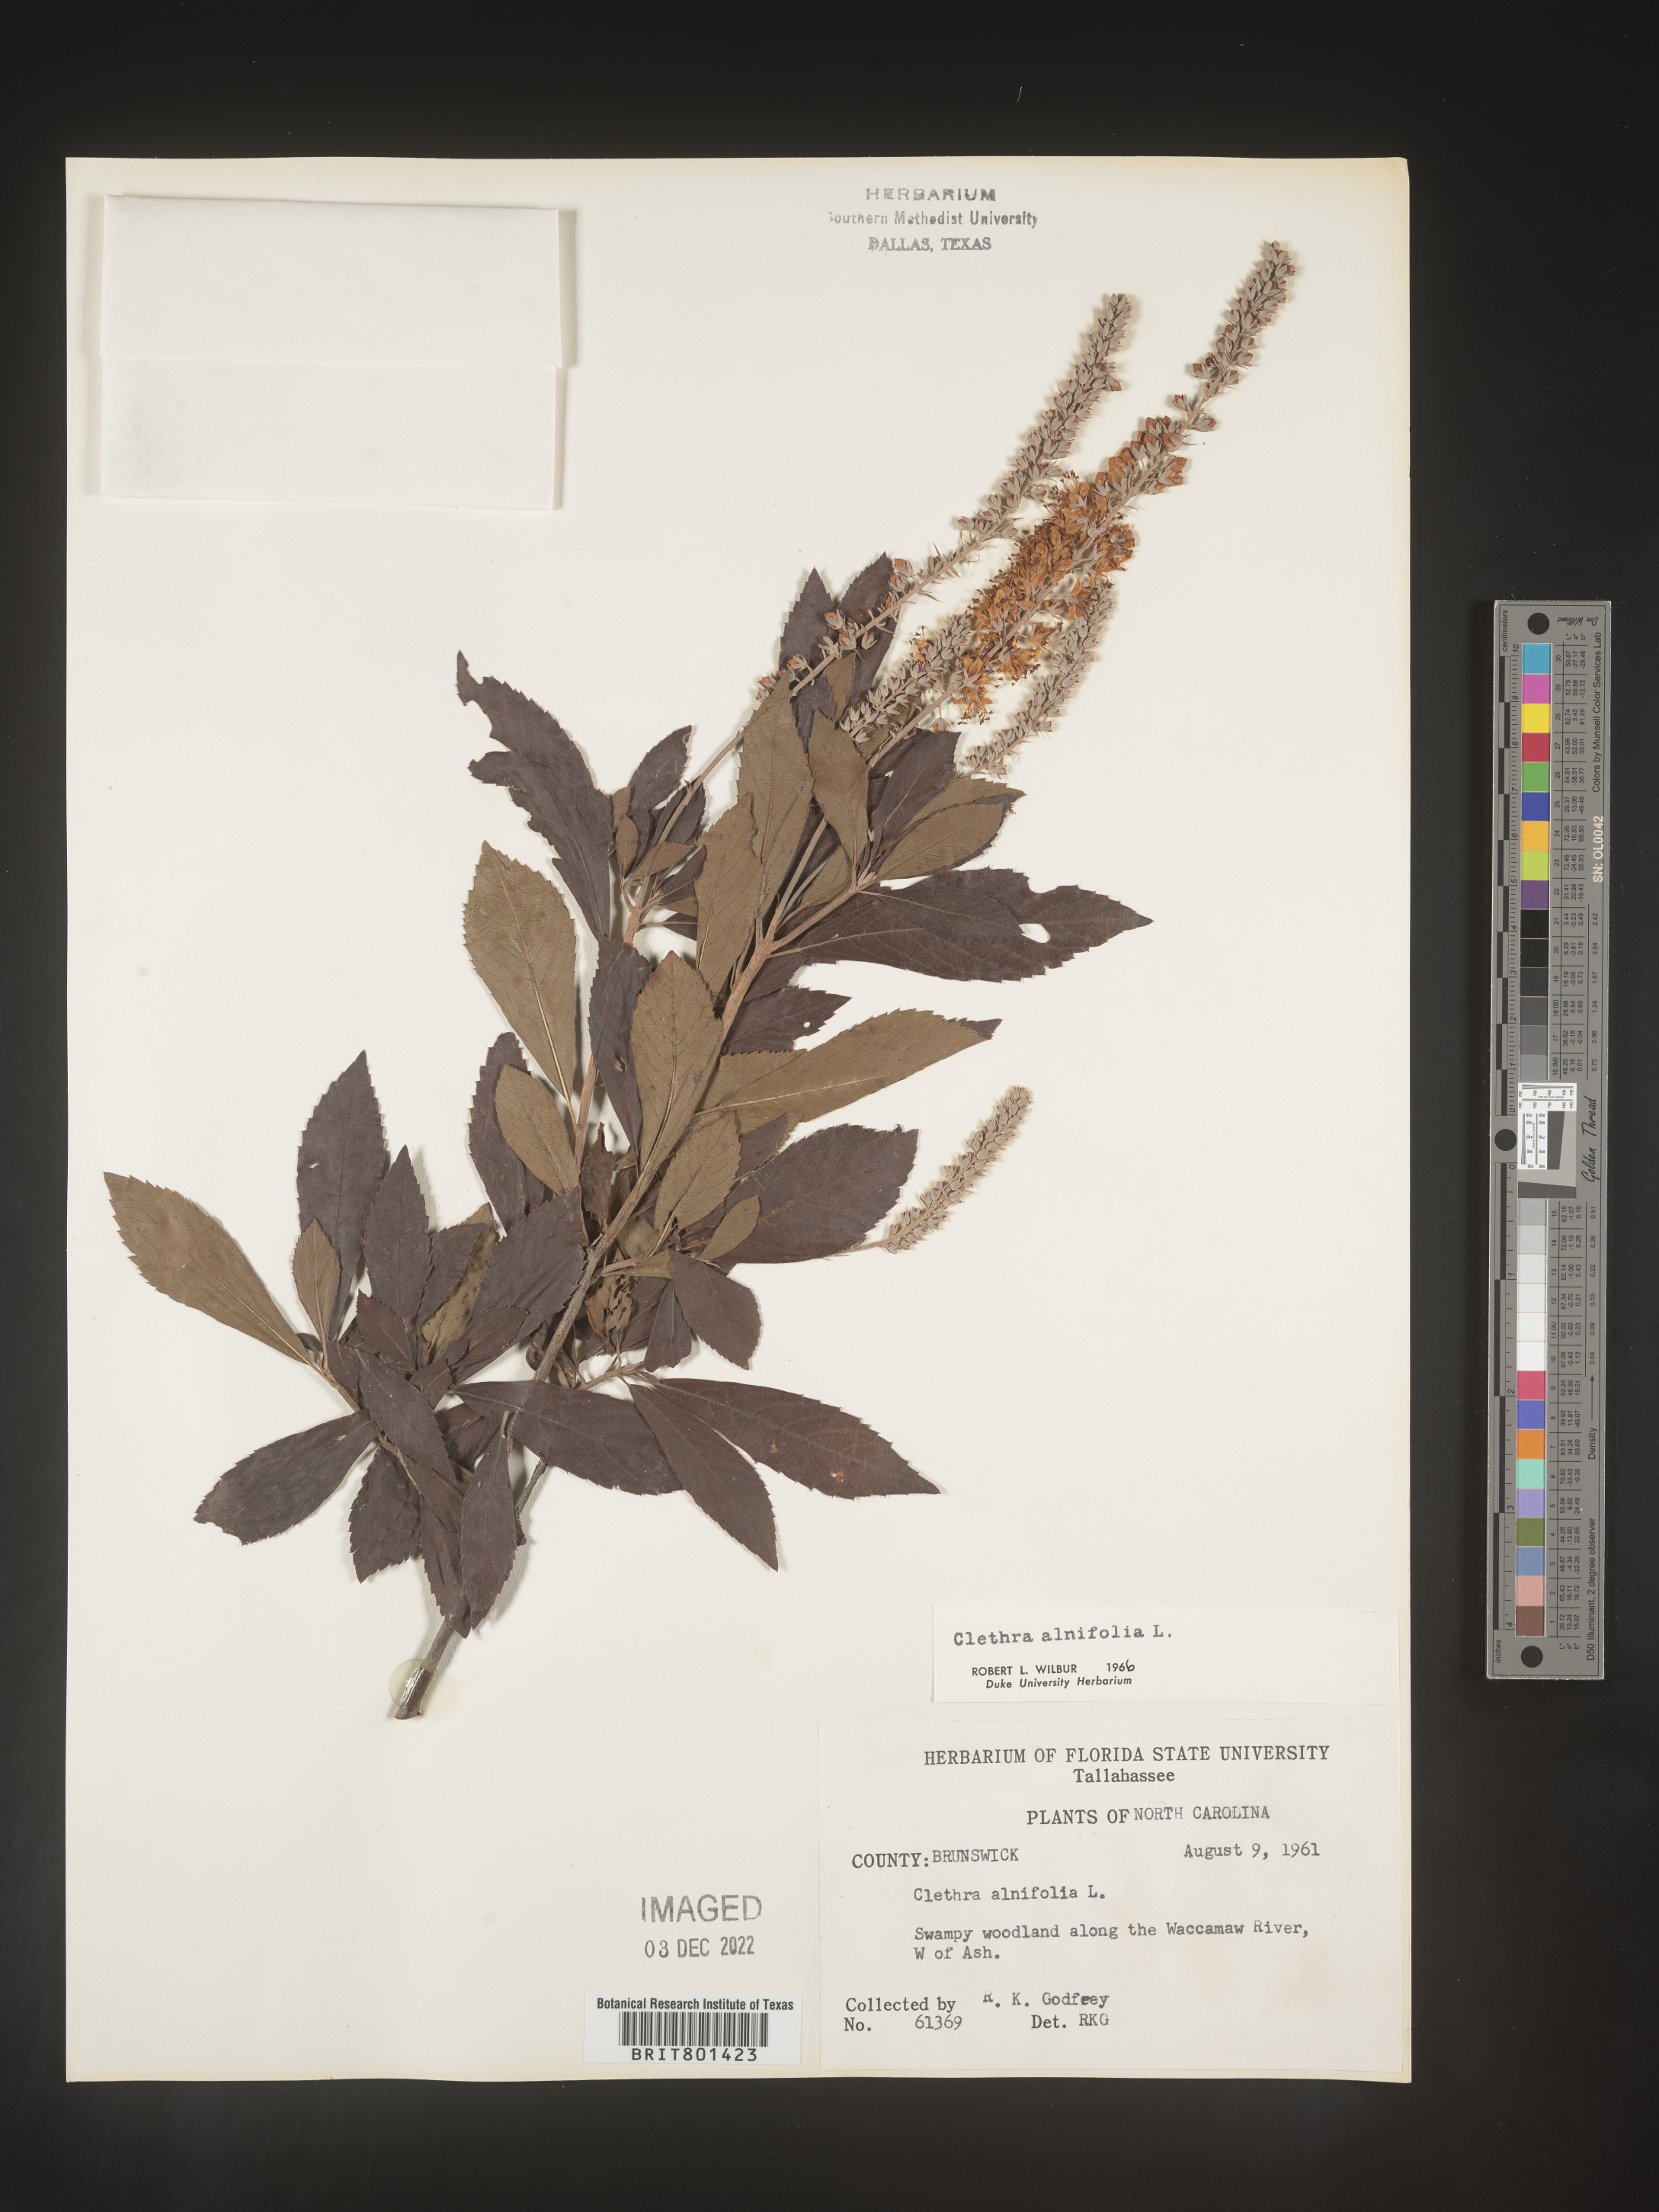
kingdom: Plantae
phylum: Tracheophyta
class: Magnoliopsida
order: Ericales
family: Clethraceae
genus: Clethra
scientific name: Clethra alnifolia
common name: Sweet pepperbush
